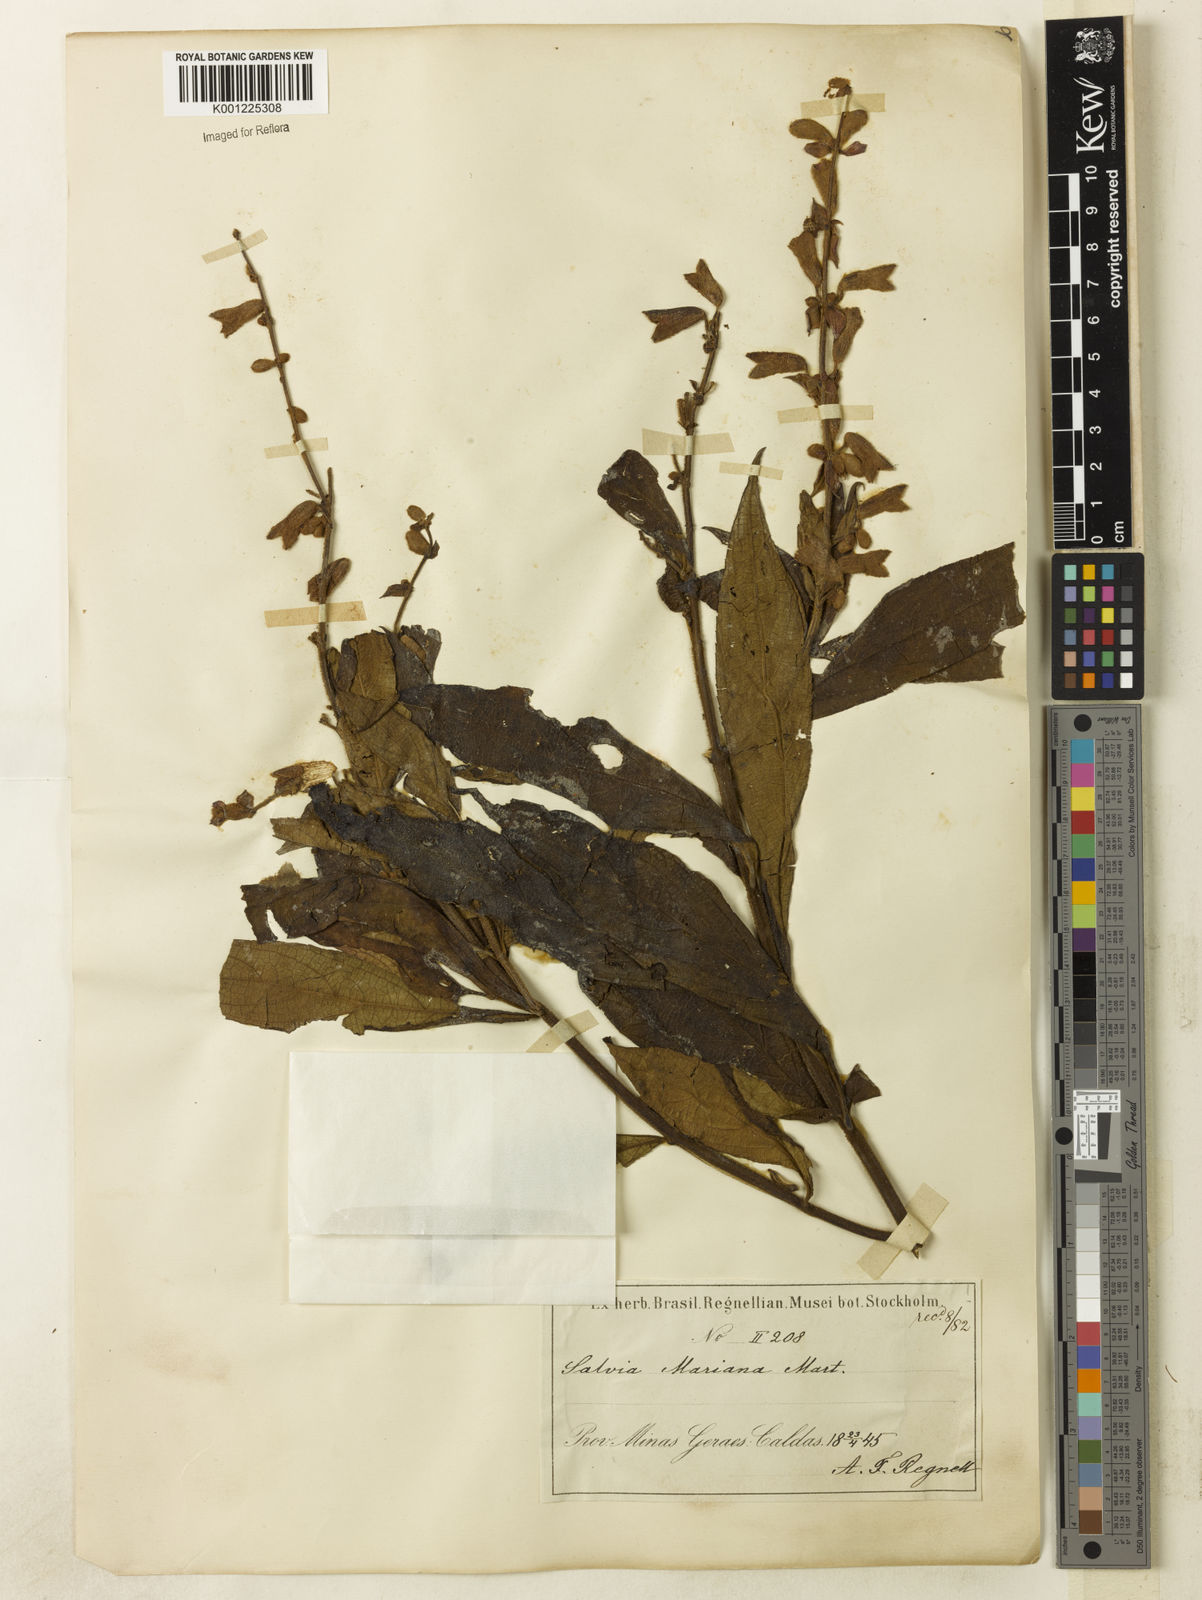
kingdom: Plantae
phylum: Tracheophyta
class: Magnoliopsida
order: Lamiales
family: Lamiaceae
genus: Salvia
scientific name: Salvia macrocalyx
